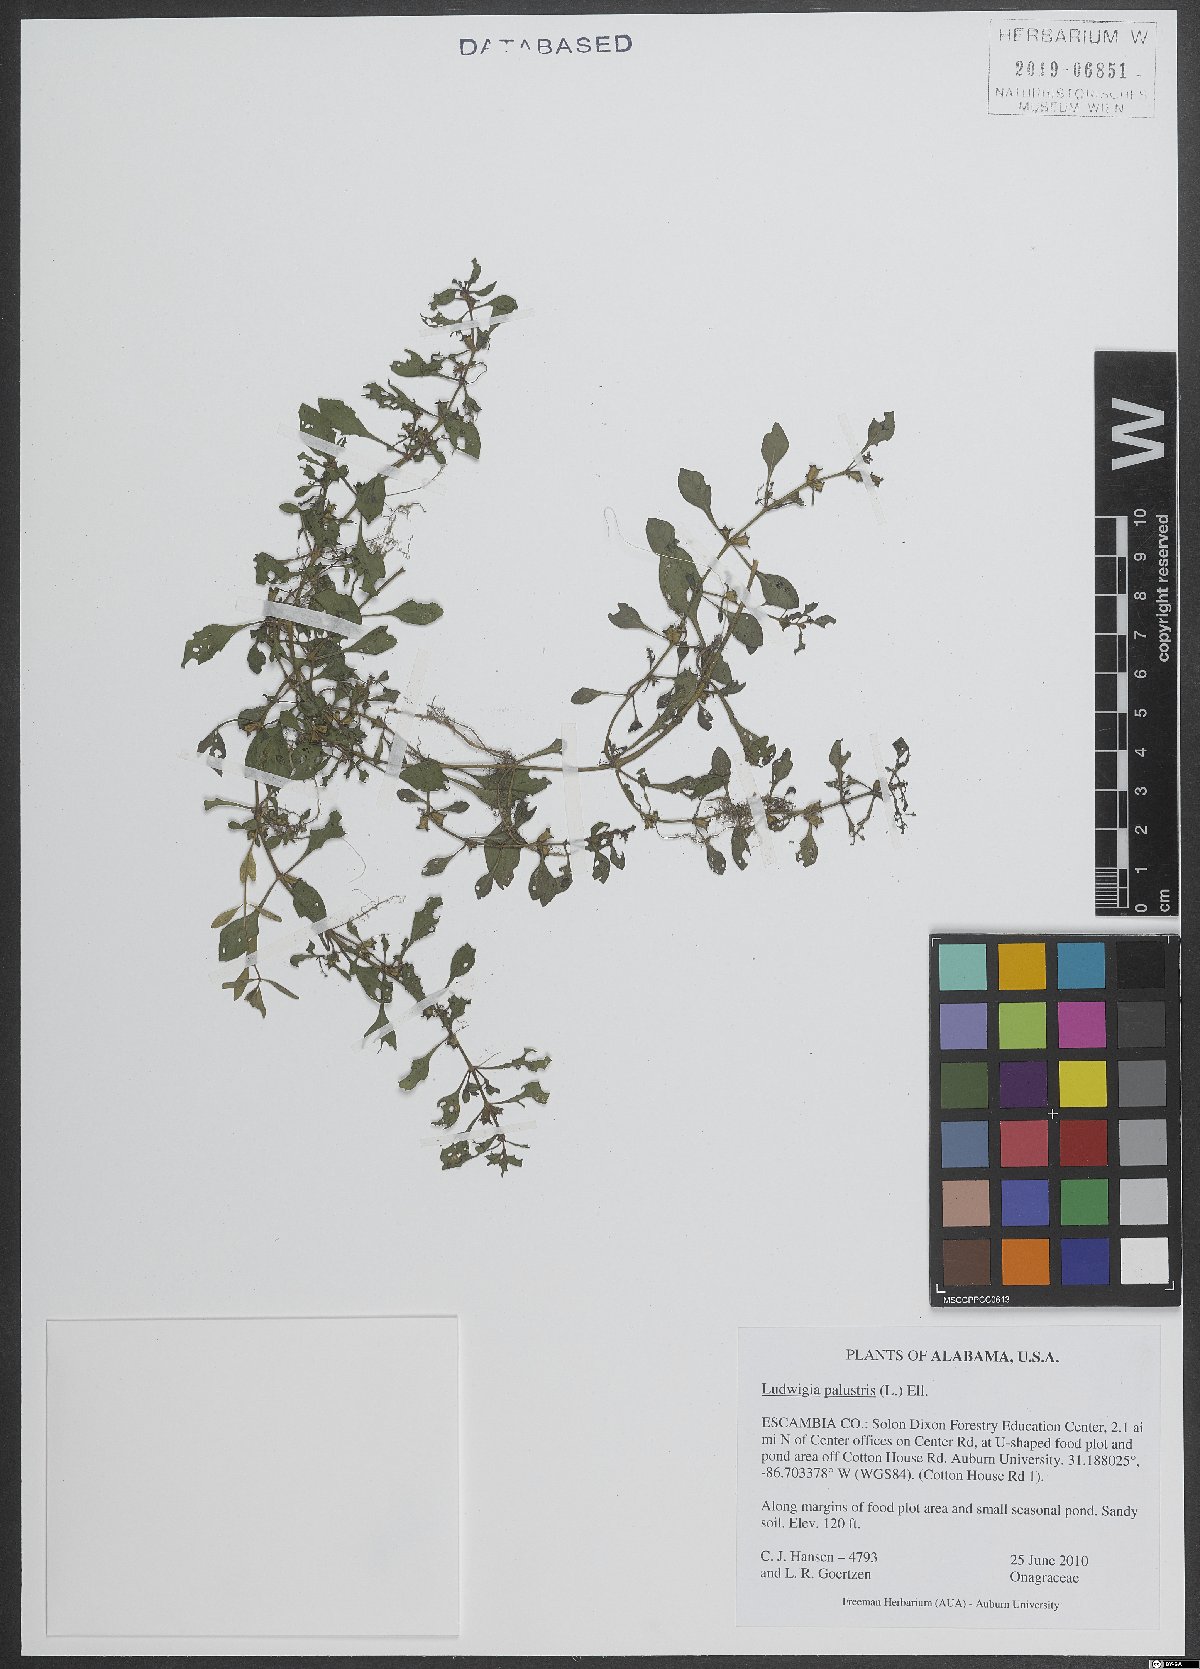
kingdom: Plantae
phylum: Tracheophyta
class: Magnoliopsida
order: Myrtales
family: Onagraceae
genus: Ludwigia
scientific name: Ludwigia palustris
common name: Hampshire-purslane
